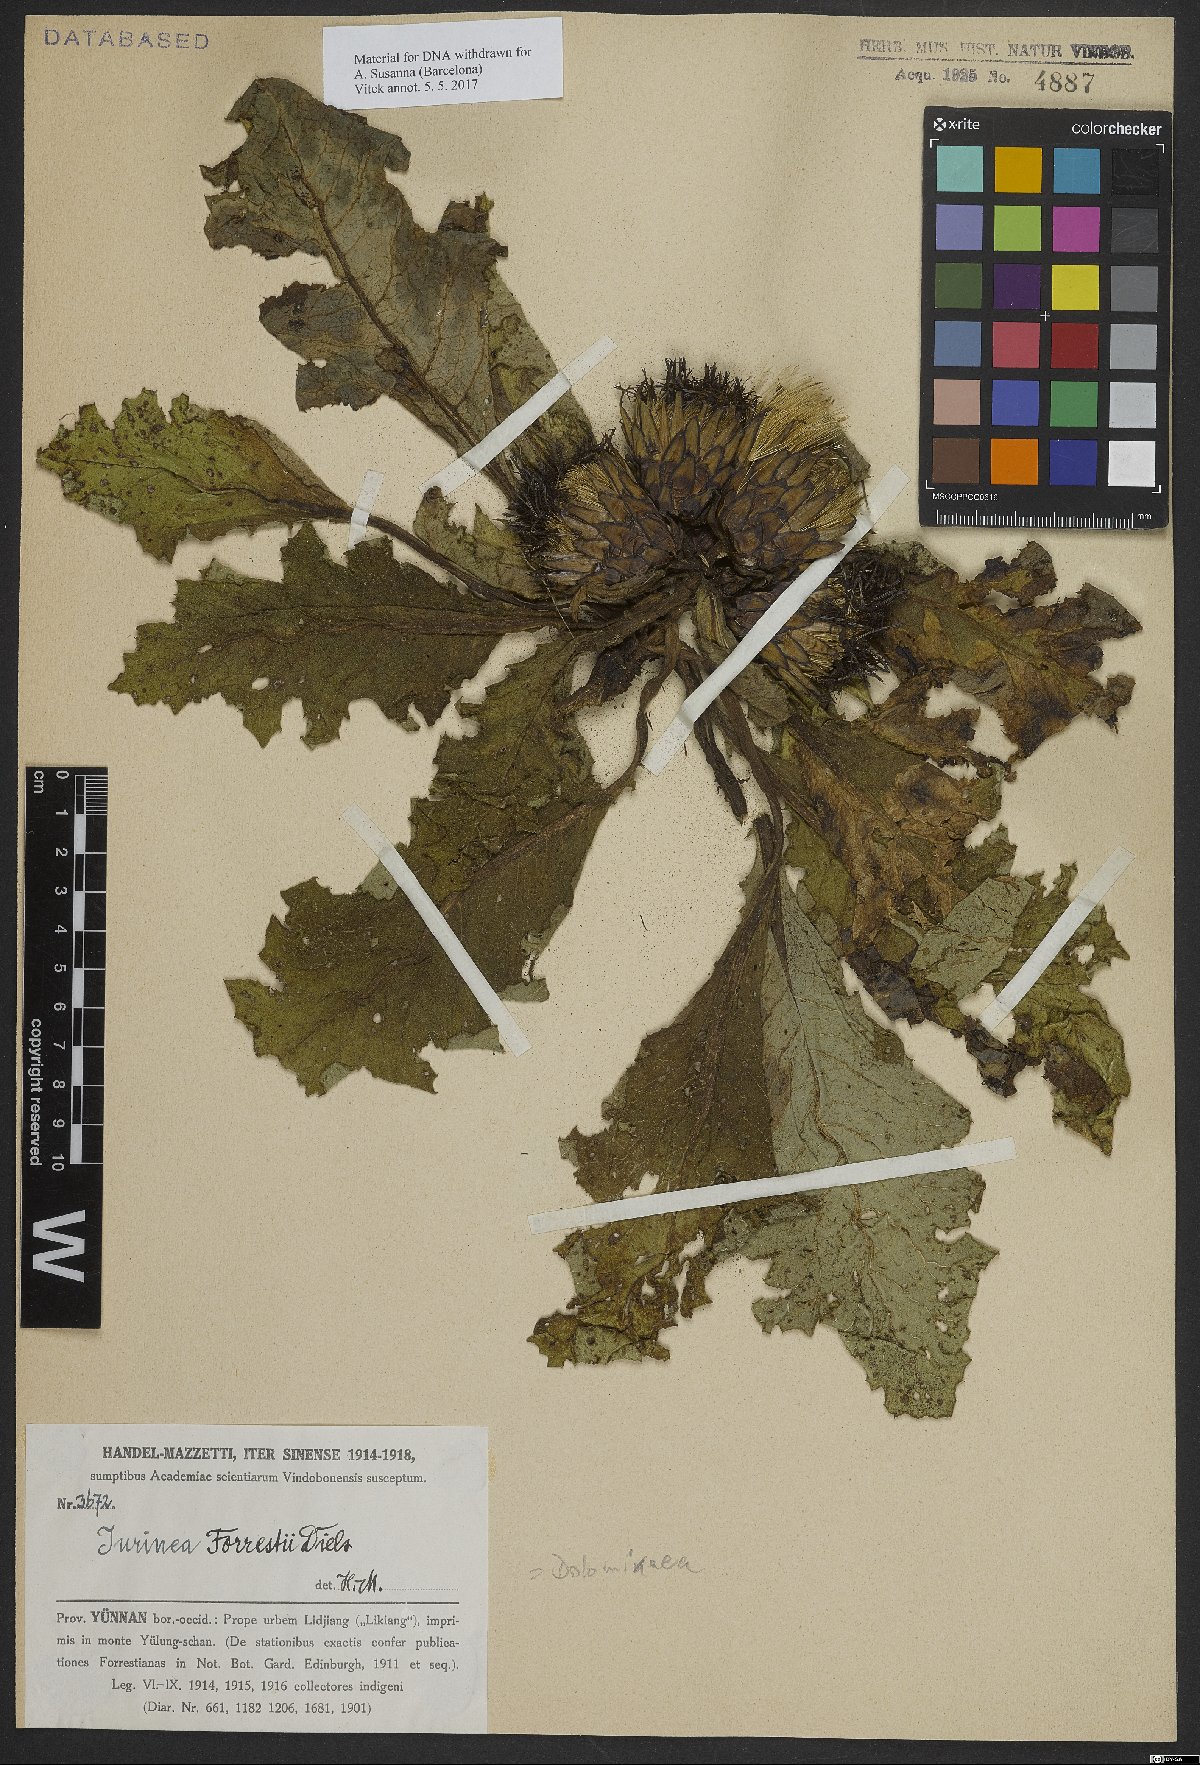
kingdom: Plantae
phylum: Tracheophyta
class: Magnoliopsida
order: Asterales
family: Asteraceae
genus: Dolomiaea
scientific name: Dolomiaea
